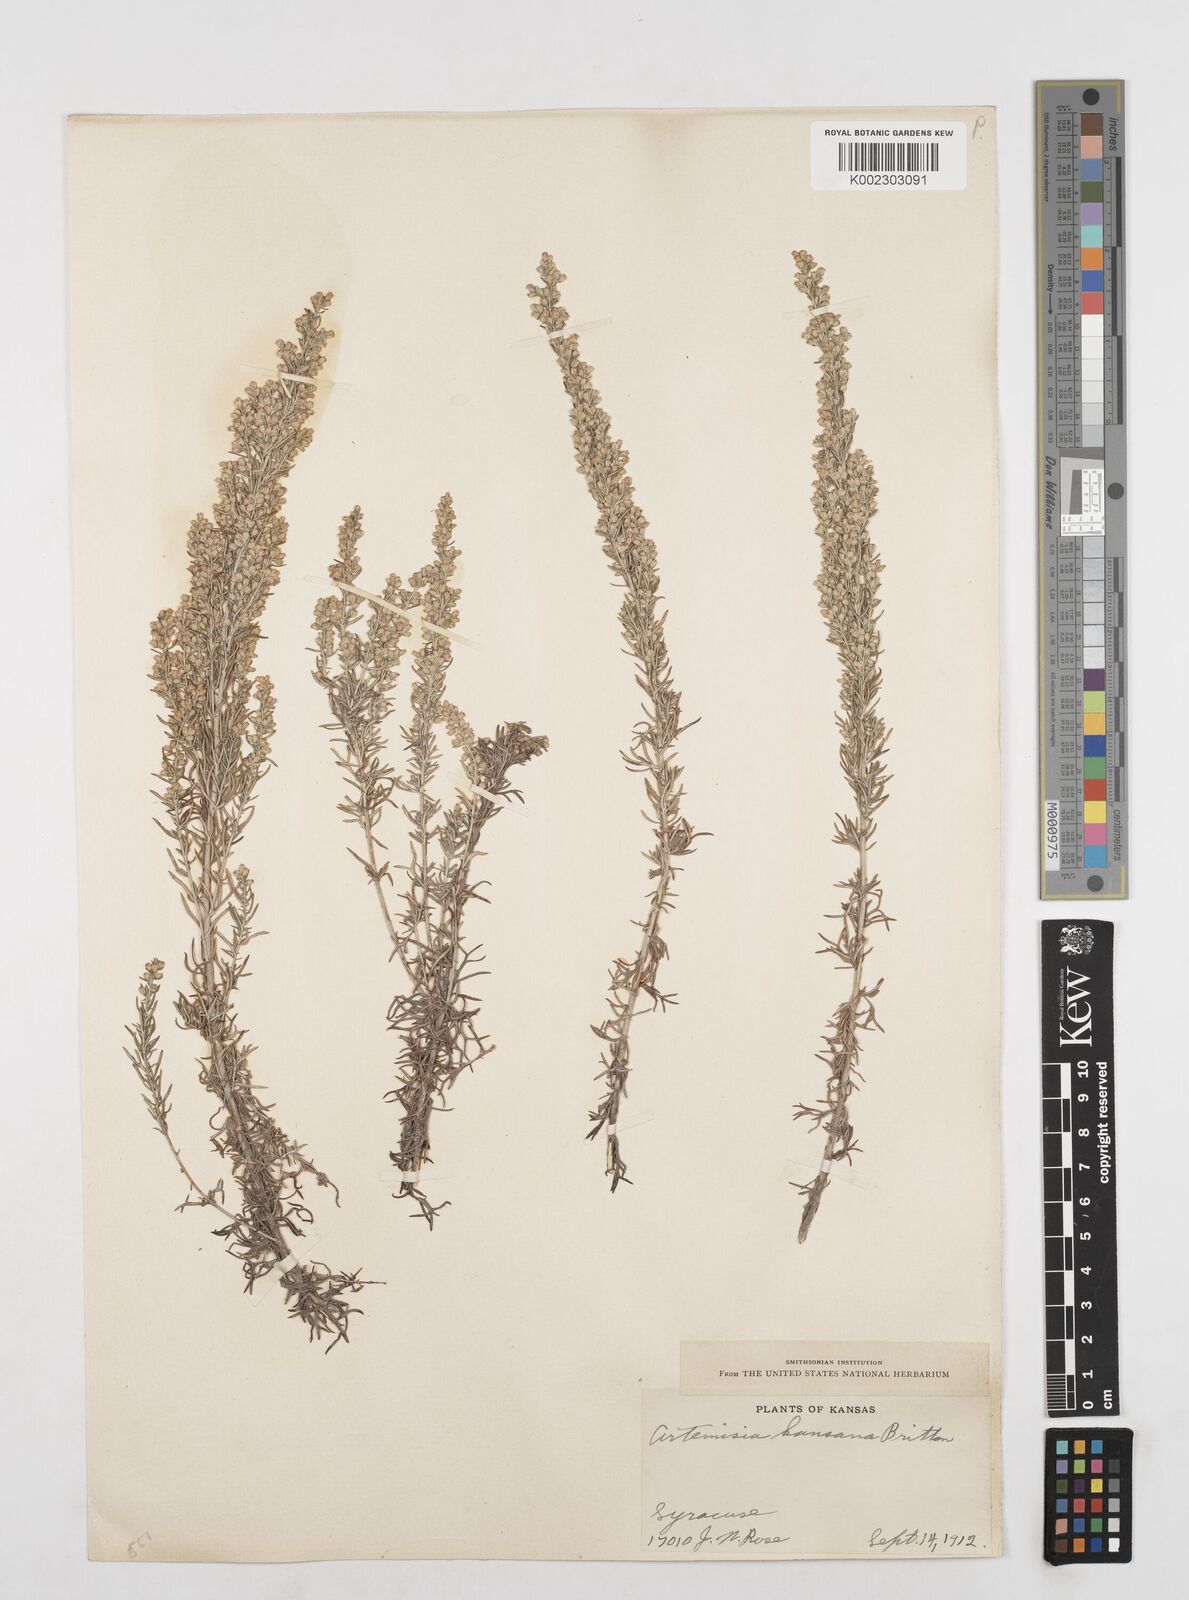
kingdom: Plantae
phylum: Tracheophyta
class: Magnoliopsida
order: Asterales
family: Asteraceae
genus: Artemisia
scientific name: Artemisia carruthii
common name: Carruth wormwood
